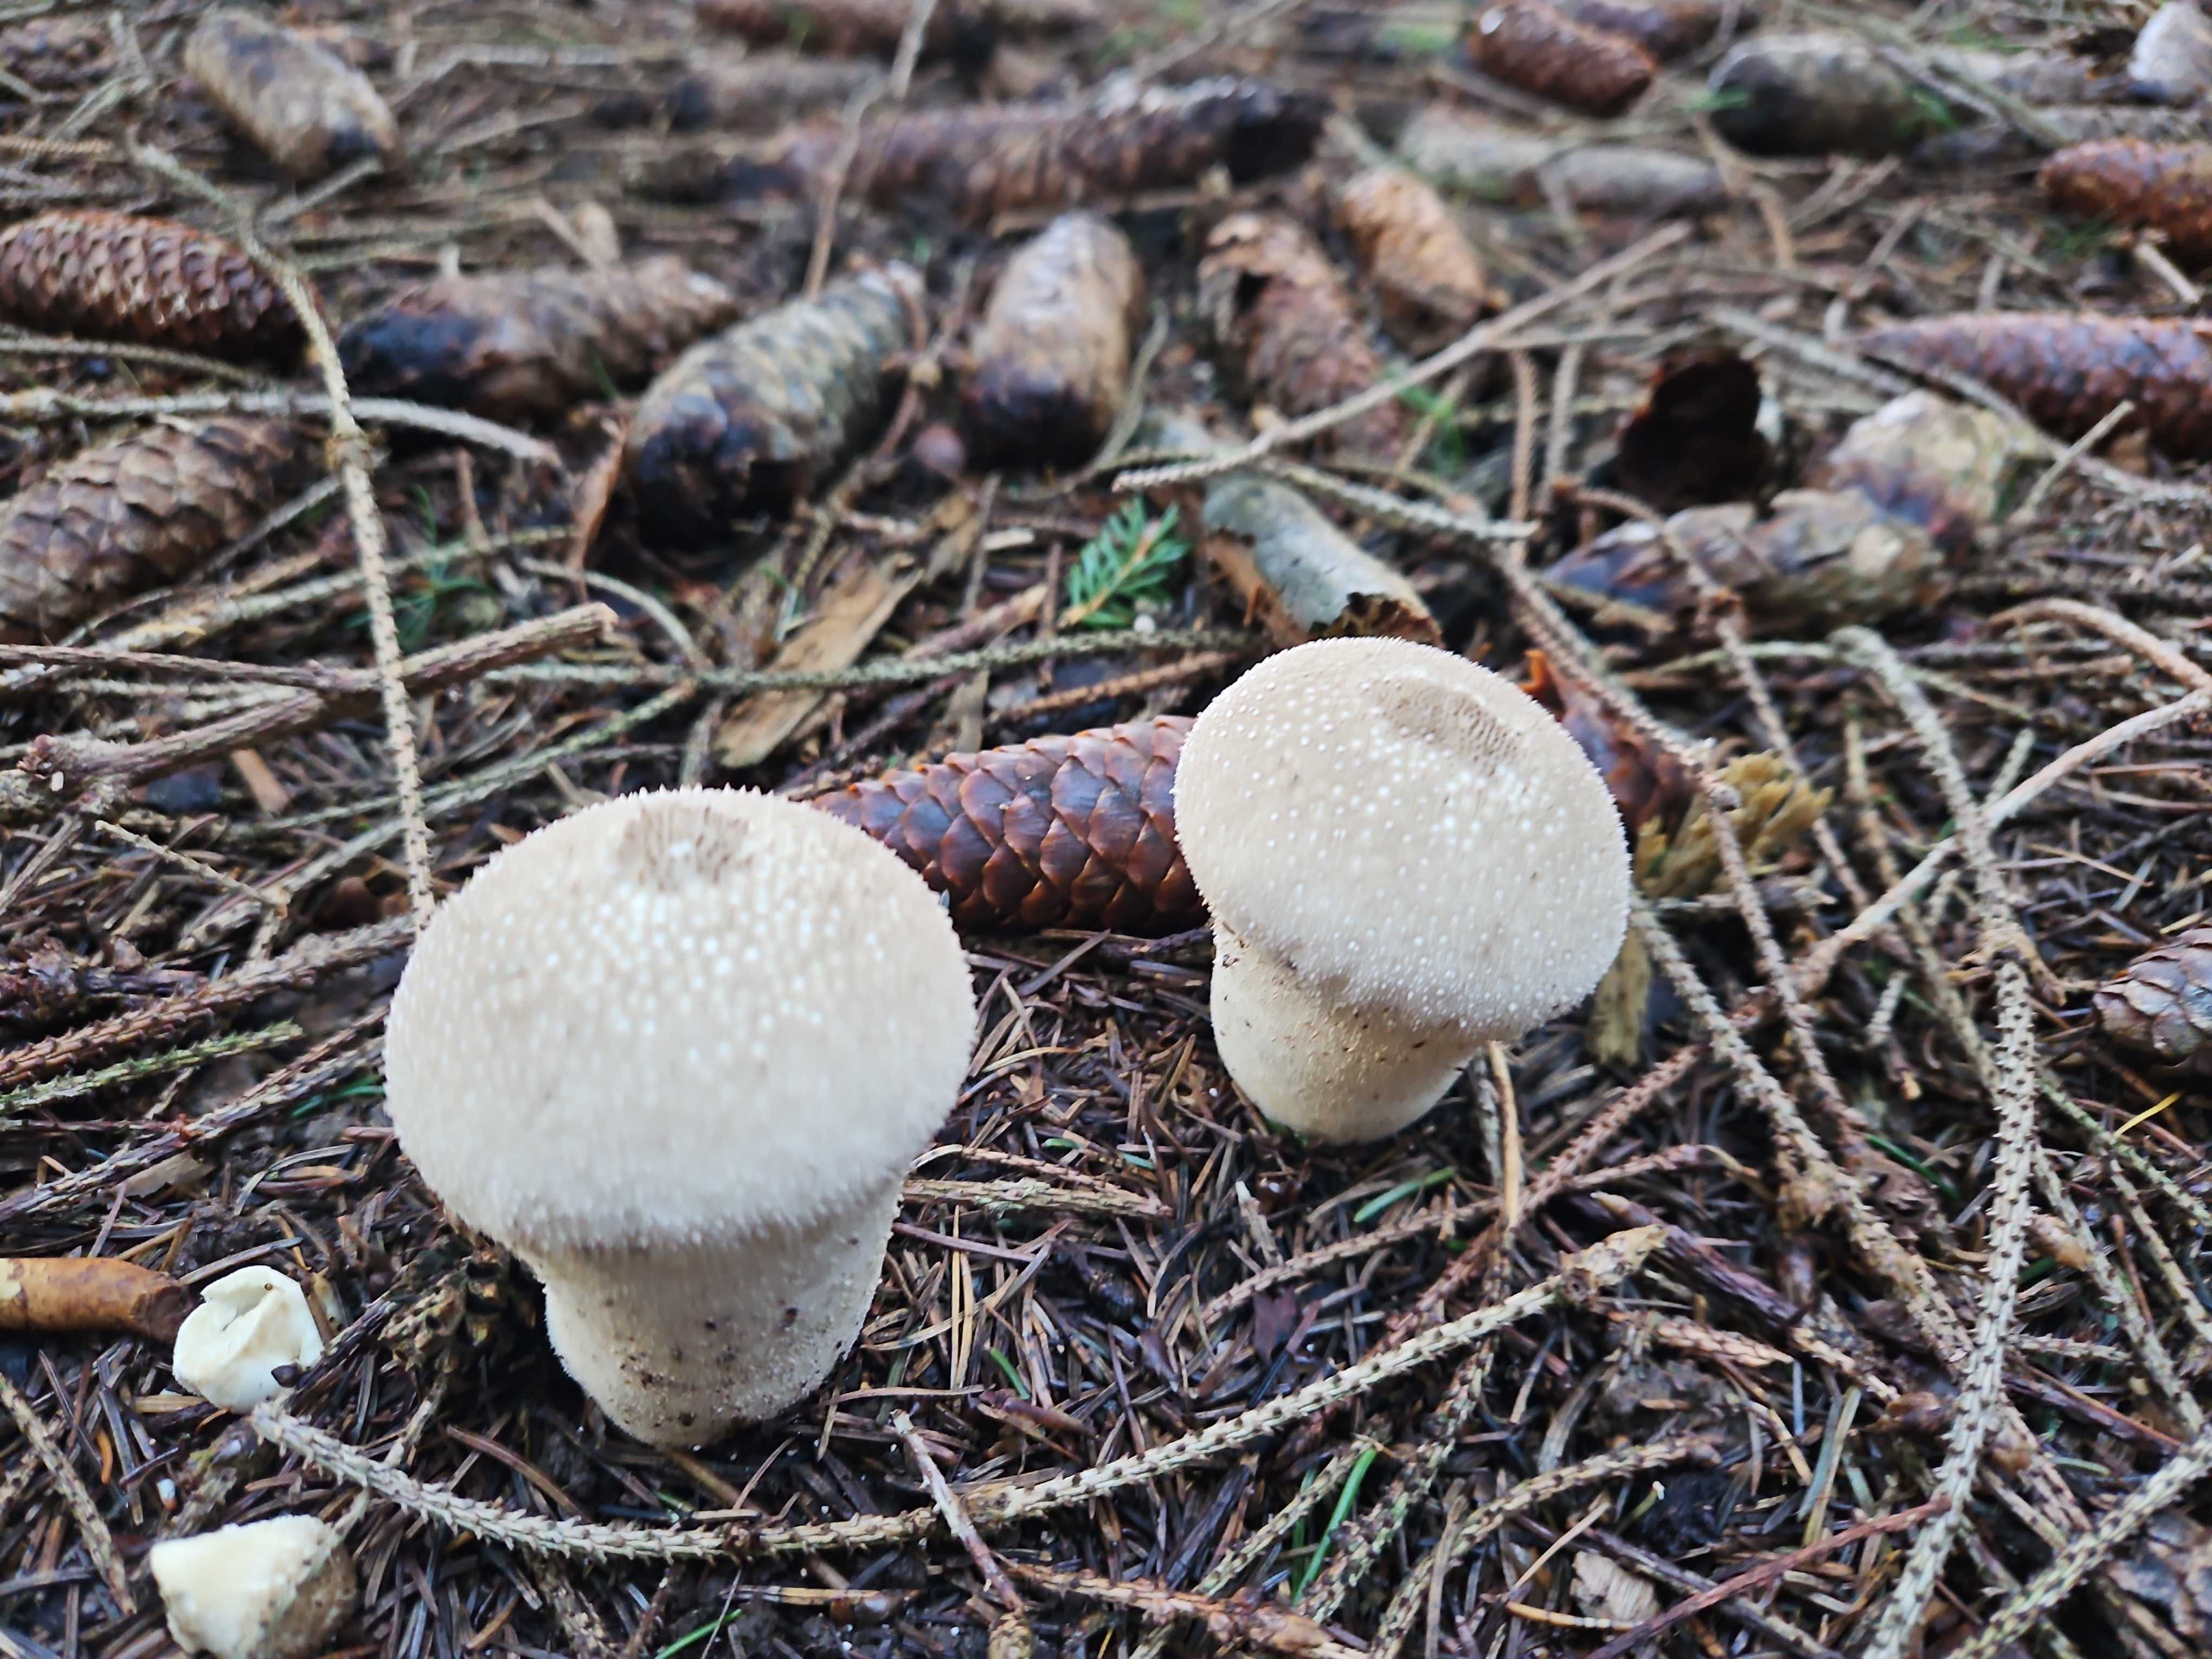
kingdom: Fungi
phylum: Basidiomycota
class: Agaricomycetes
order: Agaricales
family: Lycoperdaceae
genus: Lycoperdon
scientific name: Lycoperdon perlatum
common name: krystal-støvbold
